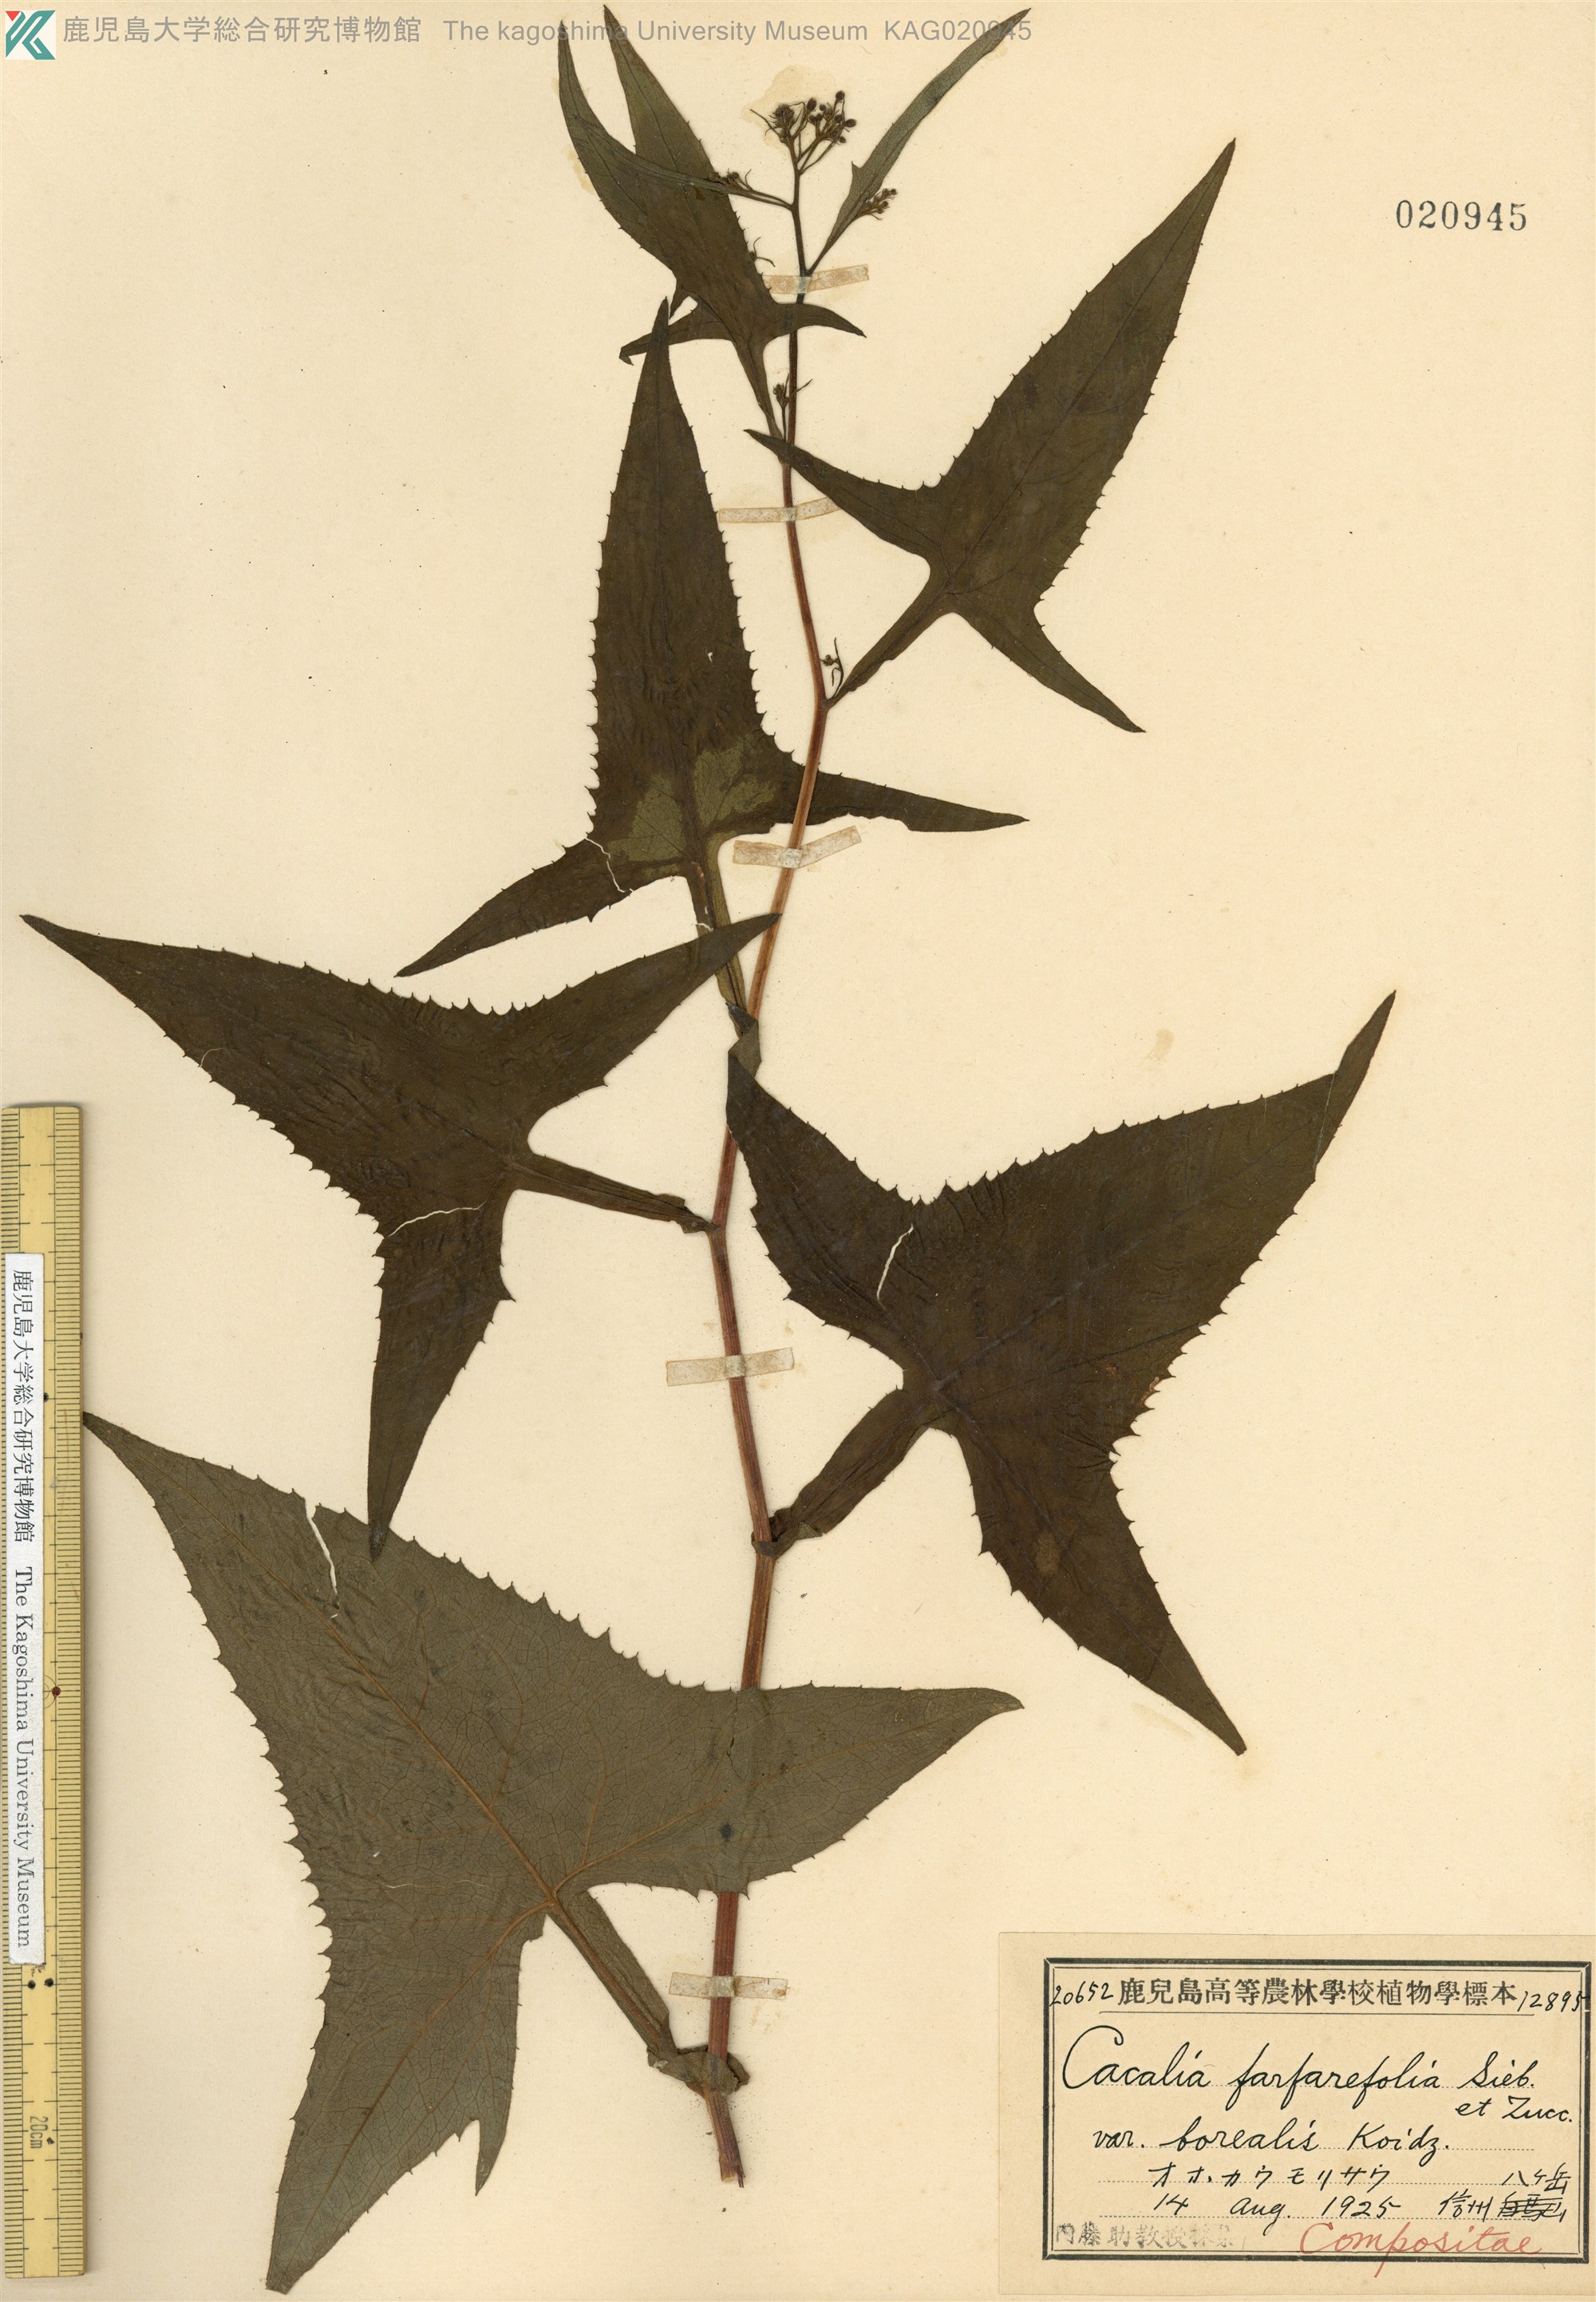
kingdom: Plantae
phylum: Tracheophyta
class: Magnoliopsida
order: Asterales
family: Asteraceae
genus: Parasenecio
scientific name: Parasenecio
